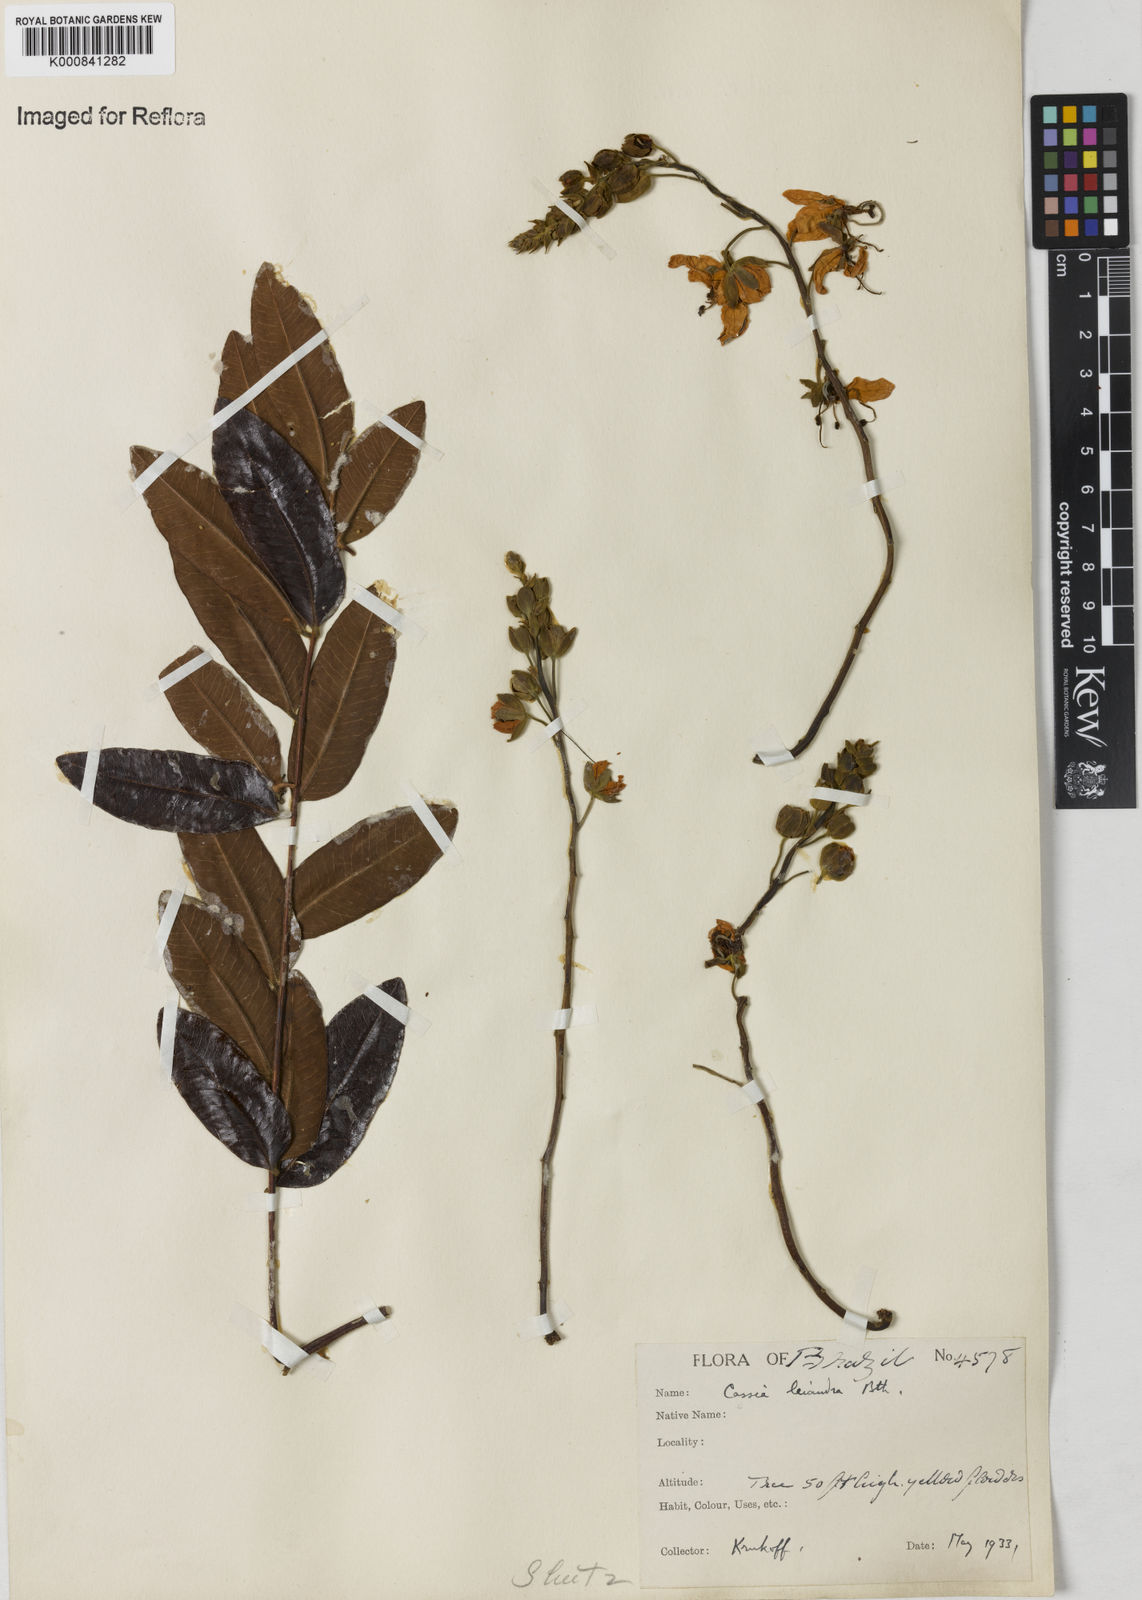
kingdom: Plantae
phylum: Tracheophyta
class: Magnoliopsida
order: Fabales
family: Fabaceae
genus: Cassia
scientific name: Cassia leiandra
